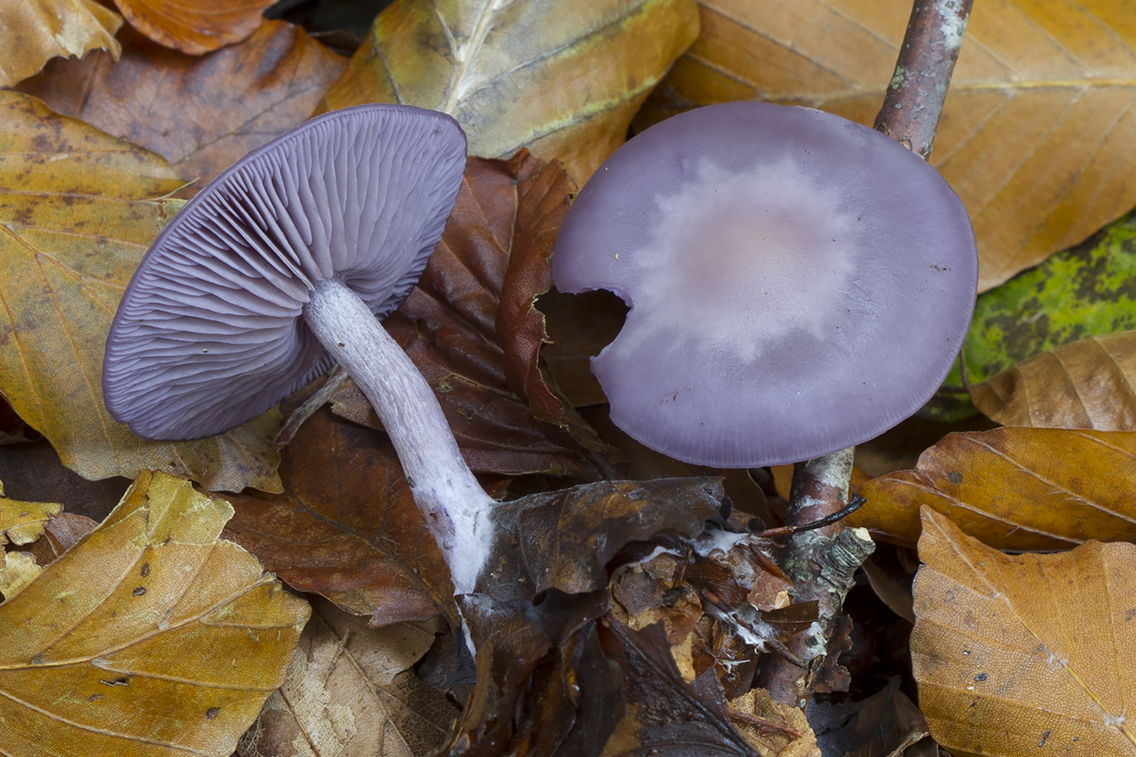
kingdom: Fungi
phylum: Basidiomycota
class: Agaricomycetes
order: Agaricales
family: Tricholomataceae
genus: Lepista
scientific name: Lepista lilacea
